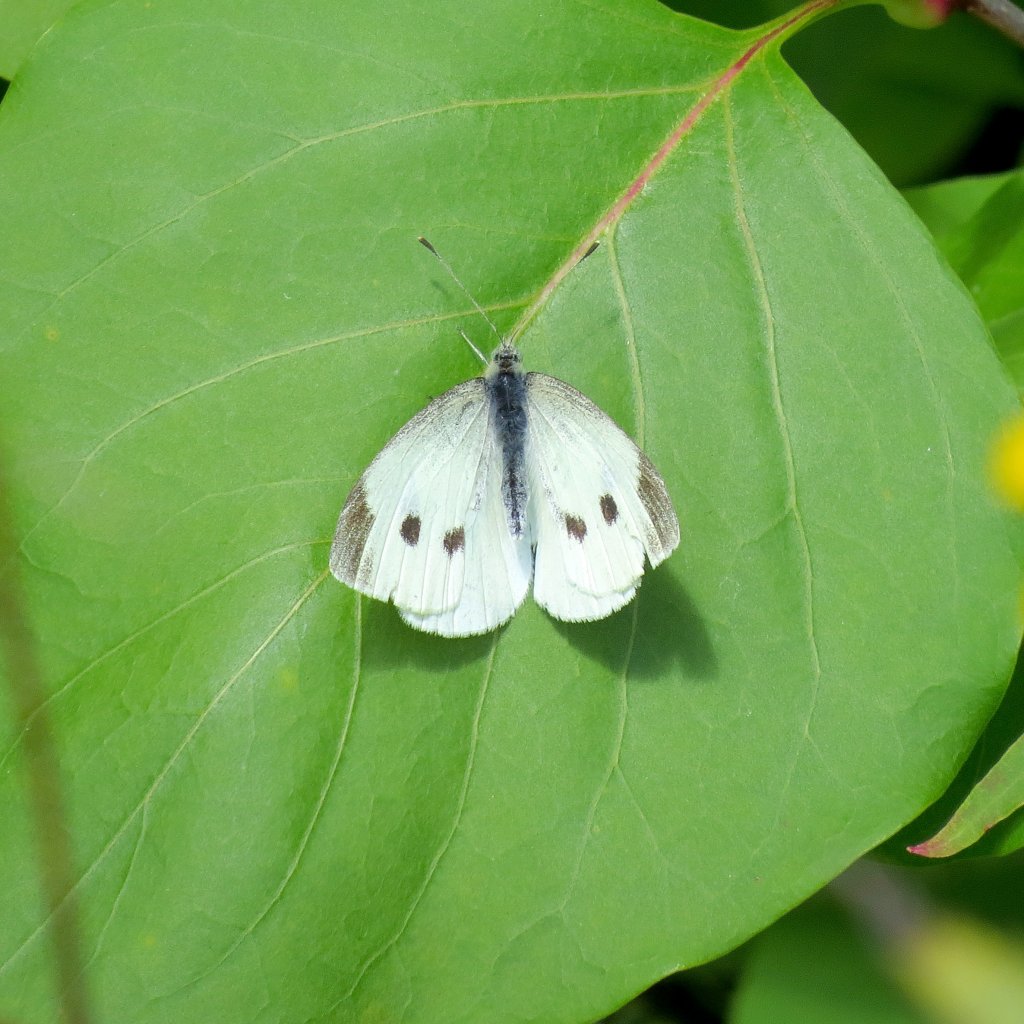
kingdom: Animalia
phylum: Arthropoda
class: Insecta
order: Lepidoptera
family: Pieridae
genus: Pieris
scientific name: Pieris rapae
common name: Cabbage White
